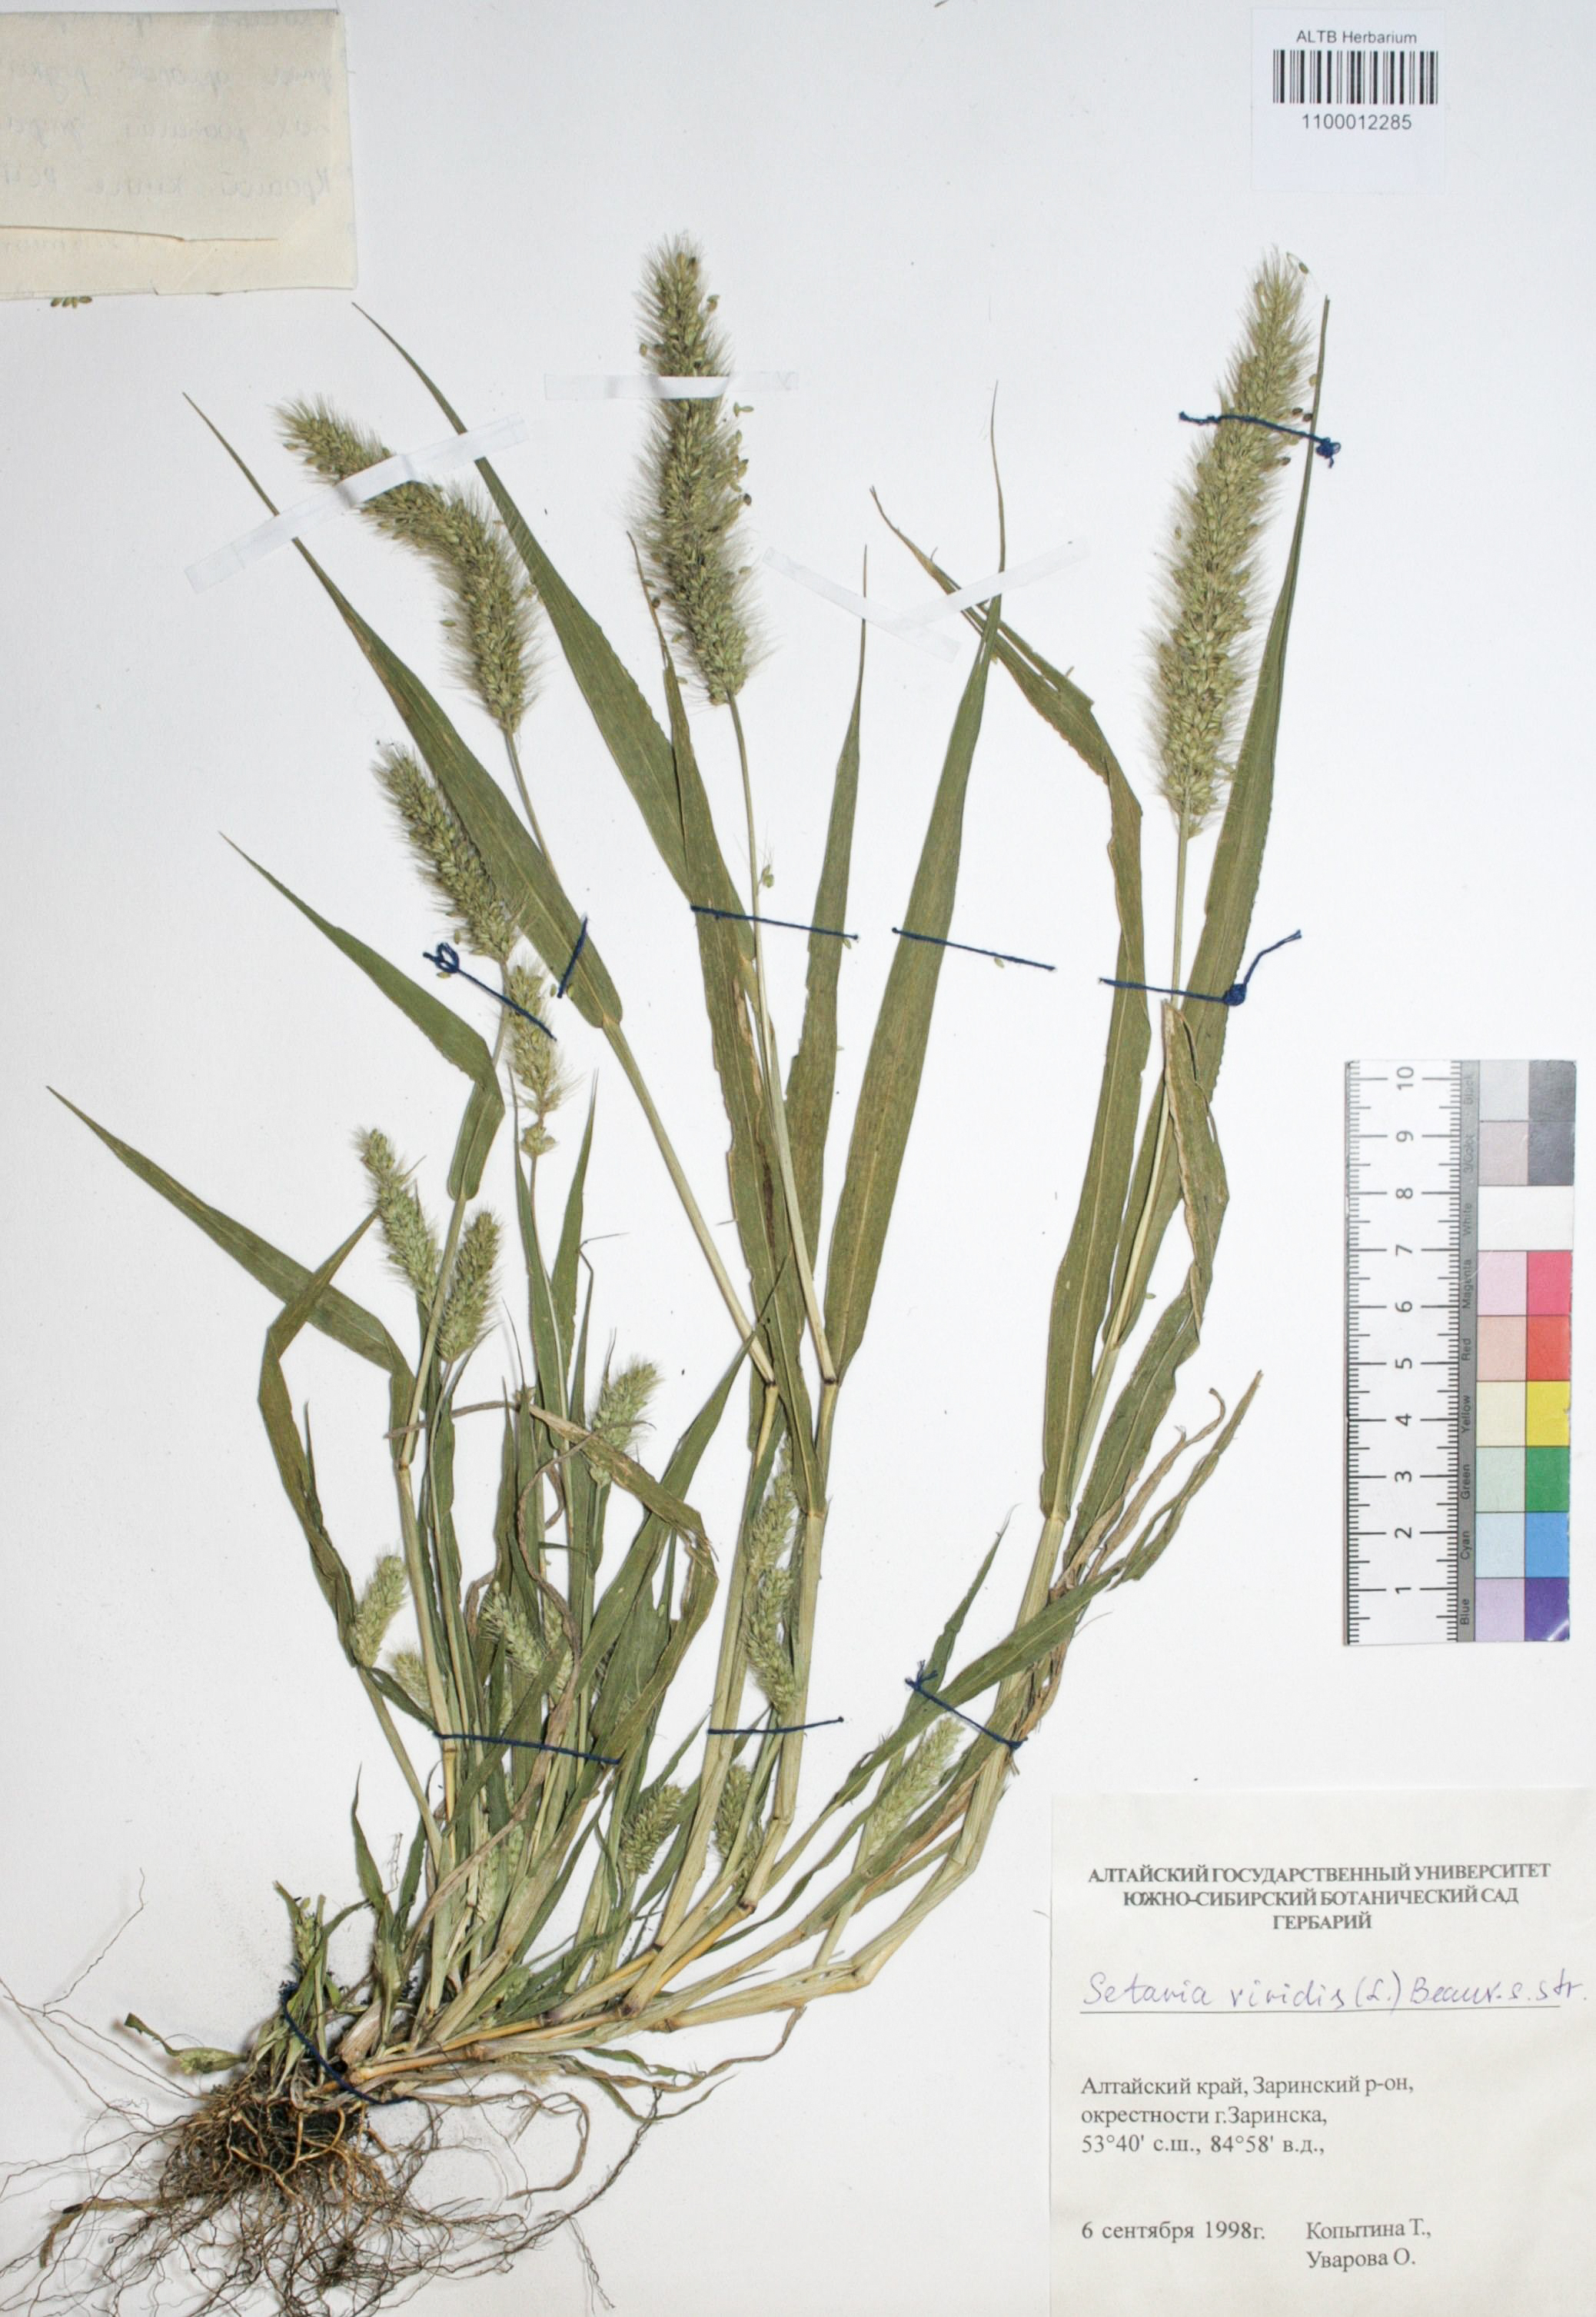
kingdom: Plantae
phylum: Tracheophyta
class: Liliopsida
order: Poales
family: Poaceae
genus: Setaria
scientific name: Setaria viridis
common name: Green bristlegrass
